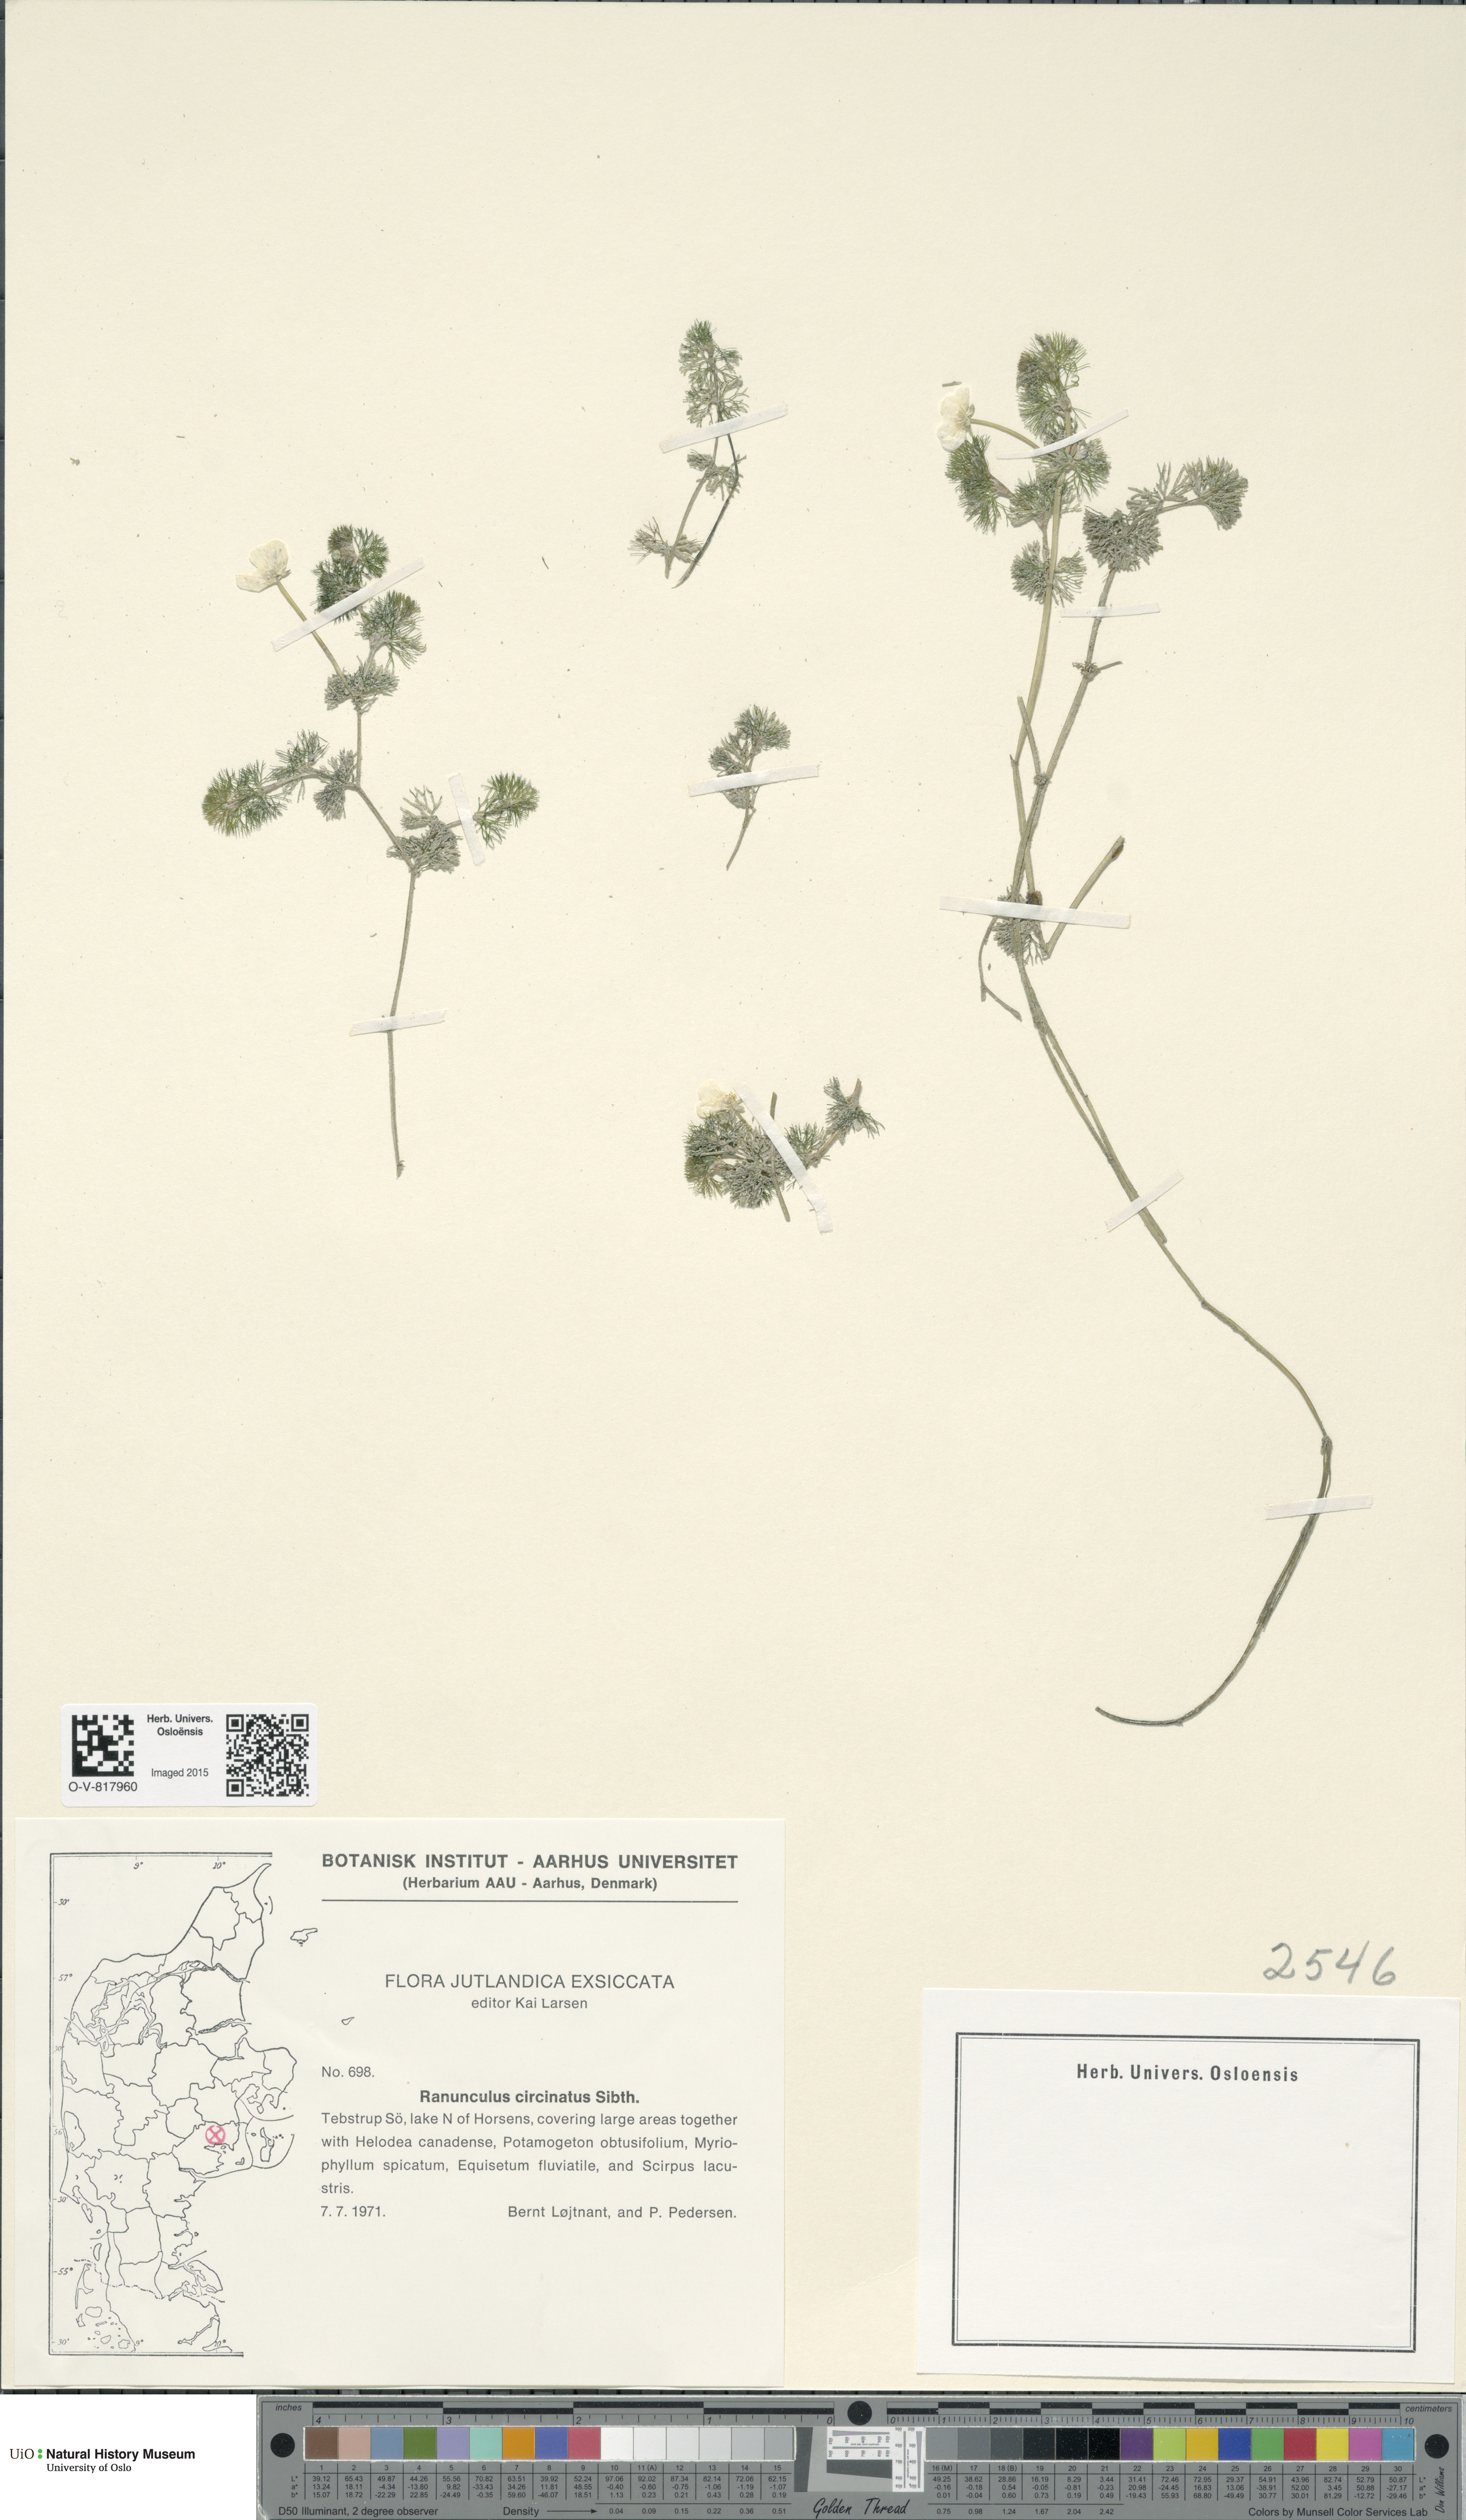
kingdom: Plantae
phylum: Tracheophyta
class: Magnoliopsida
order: Ranunculales
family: Ranunculaceae
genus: Ranunculus
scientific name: Ranunculus circinatus
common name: Fan-leaved water-crowfoot
